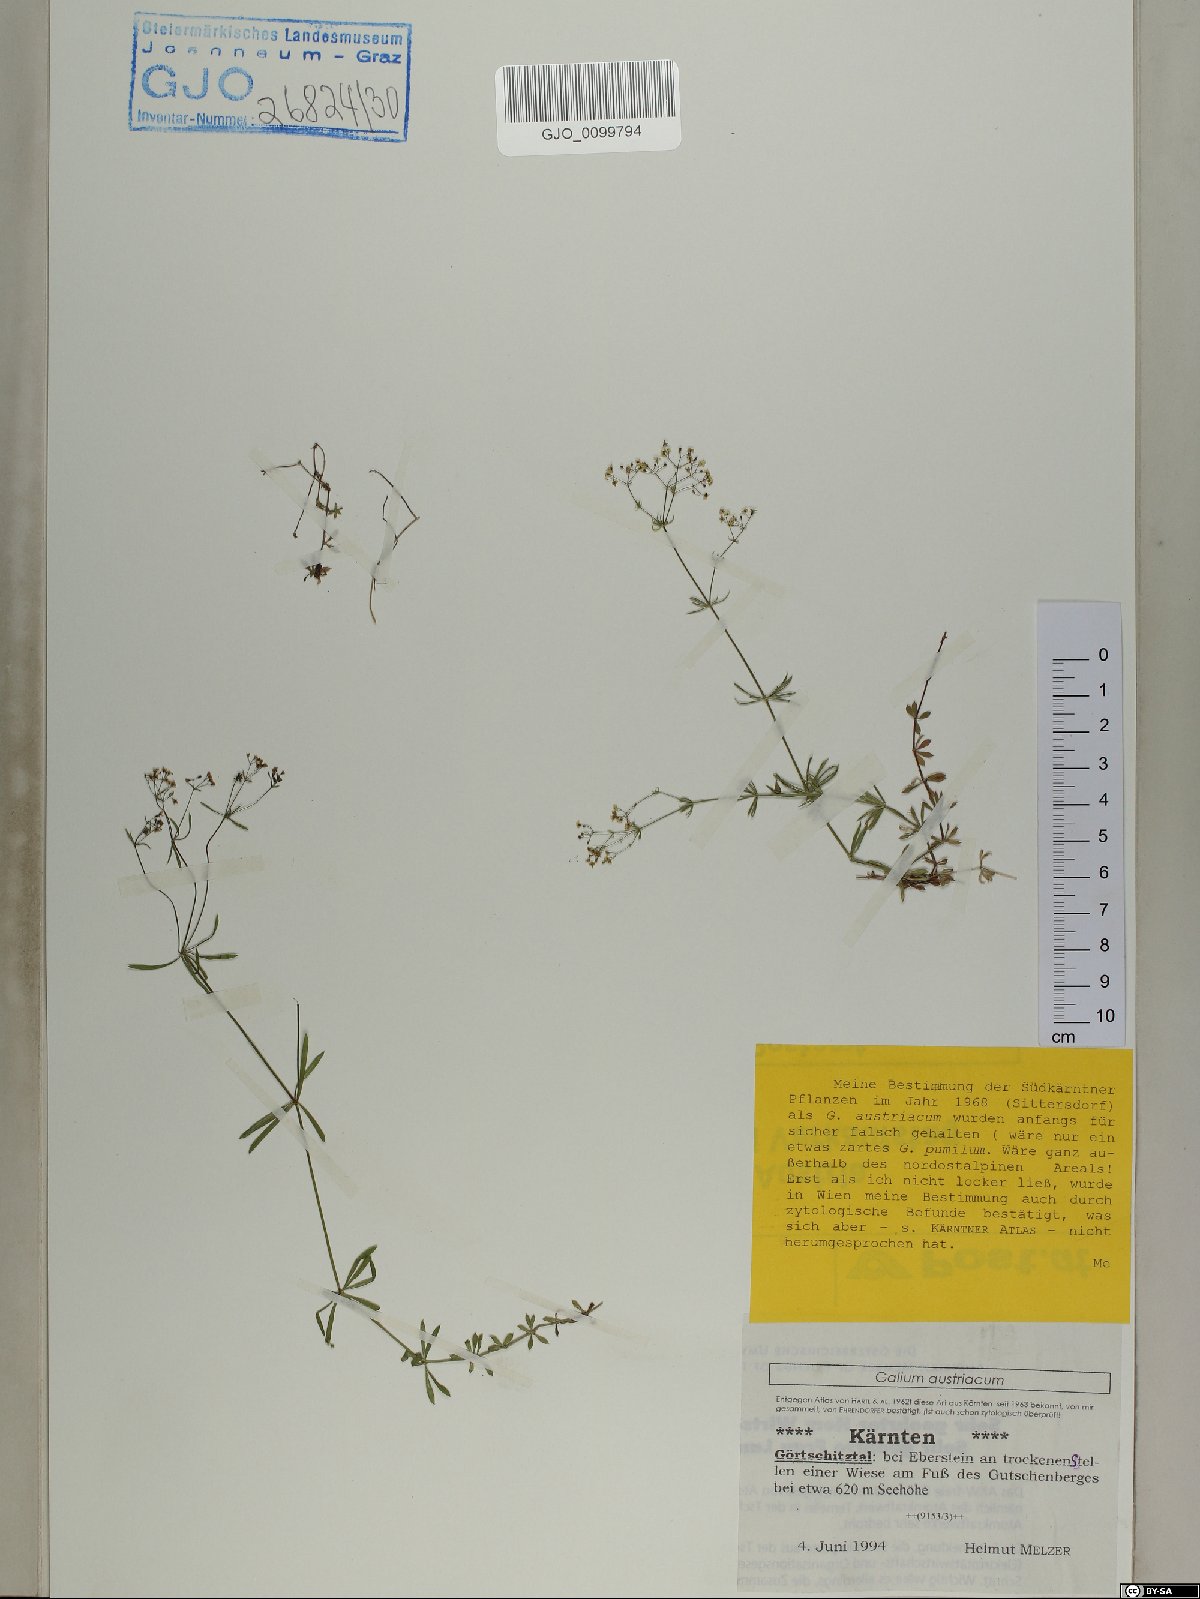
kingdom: Plantae
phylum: Tracheophyta
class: Magnoliopsida
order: Gentianales
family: Rubiaceae
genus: Galium
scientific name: Galium austriacum
